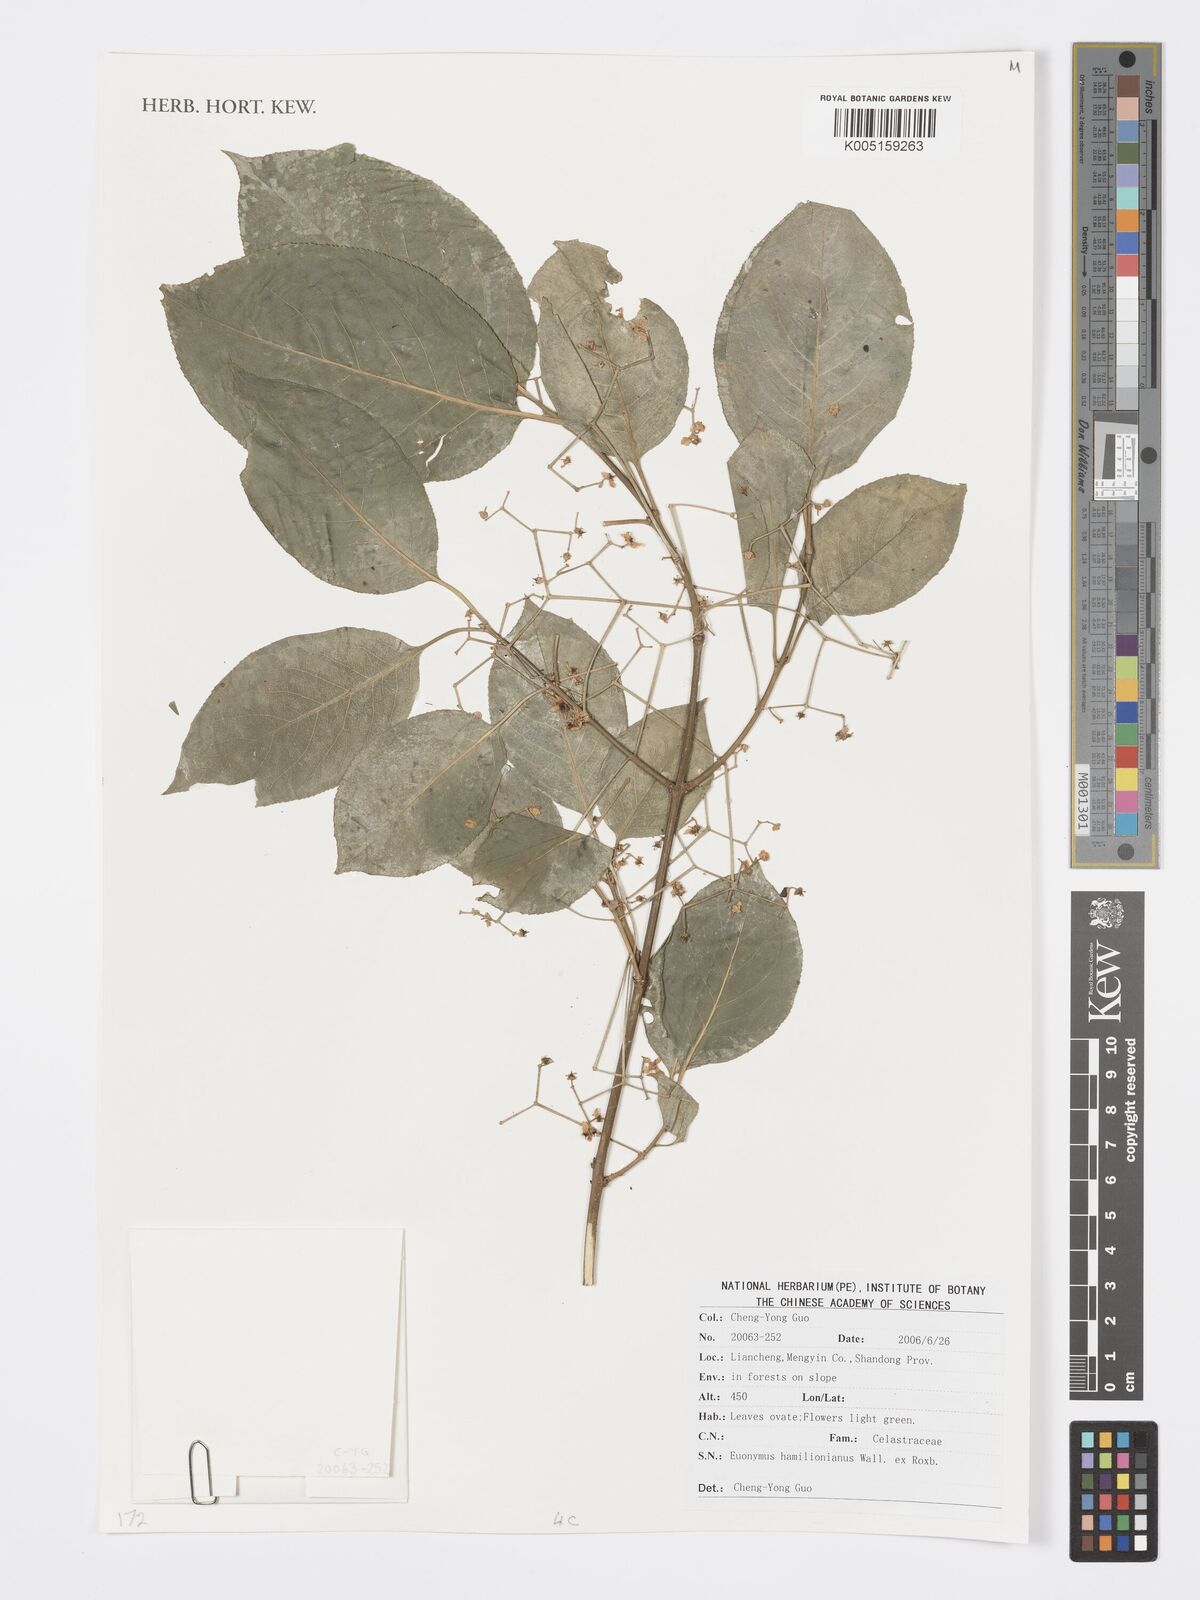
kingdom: Plantae
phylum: Tracheophyta
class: Magnoliopsida
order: Celastrales
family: Celastraceae
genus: Euonymus
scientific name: Euonymus hamiltonianus
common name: Hamilton's spindletree
